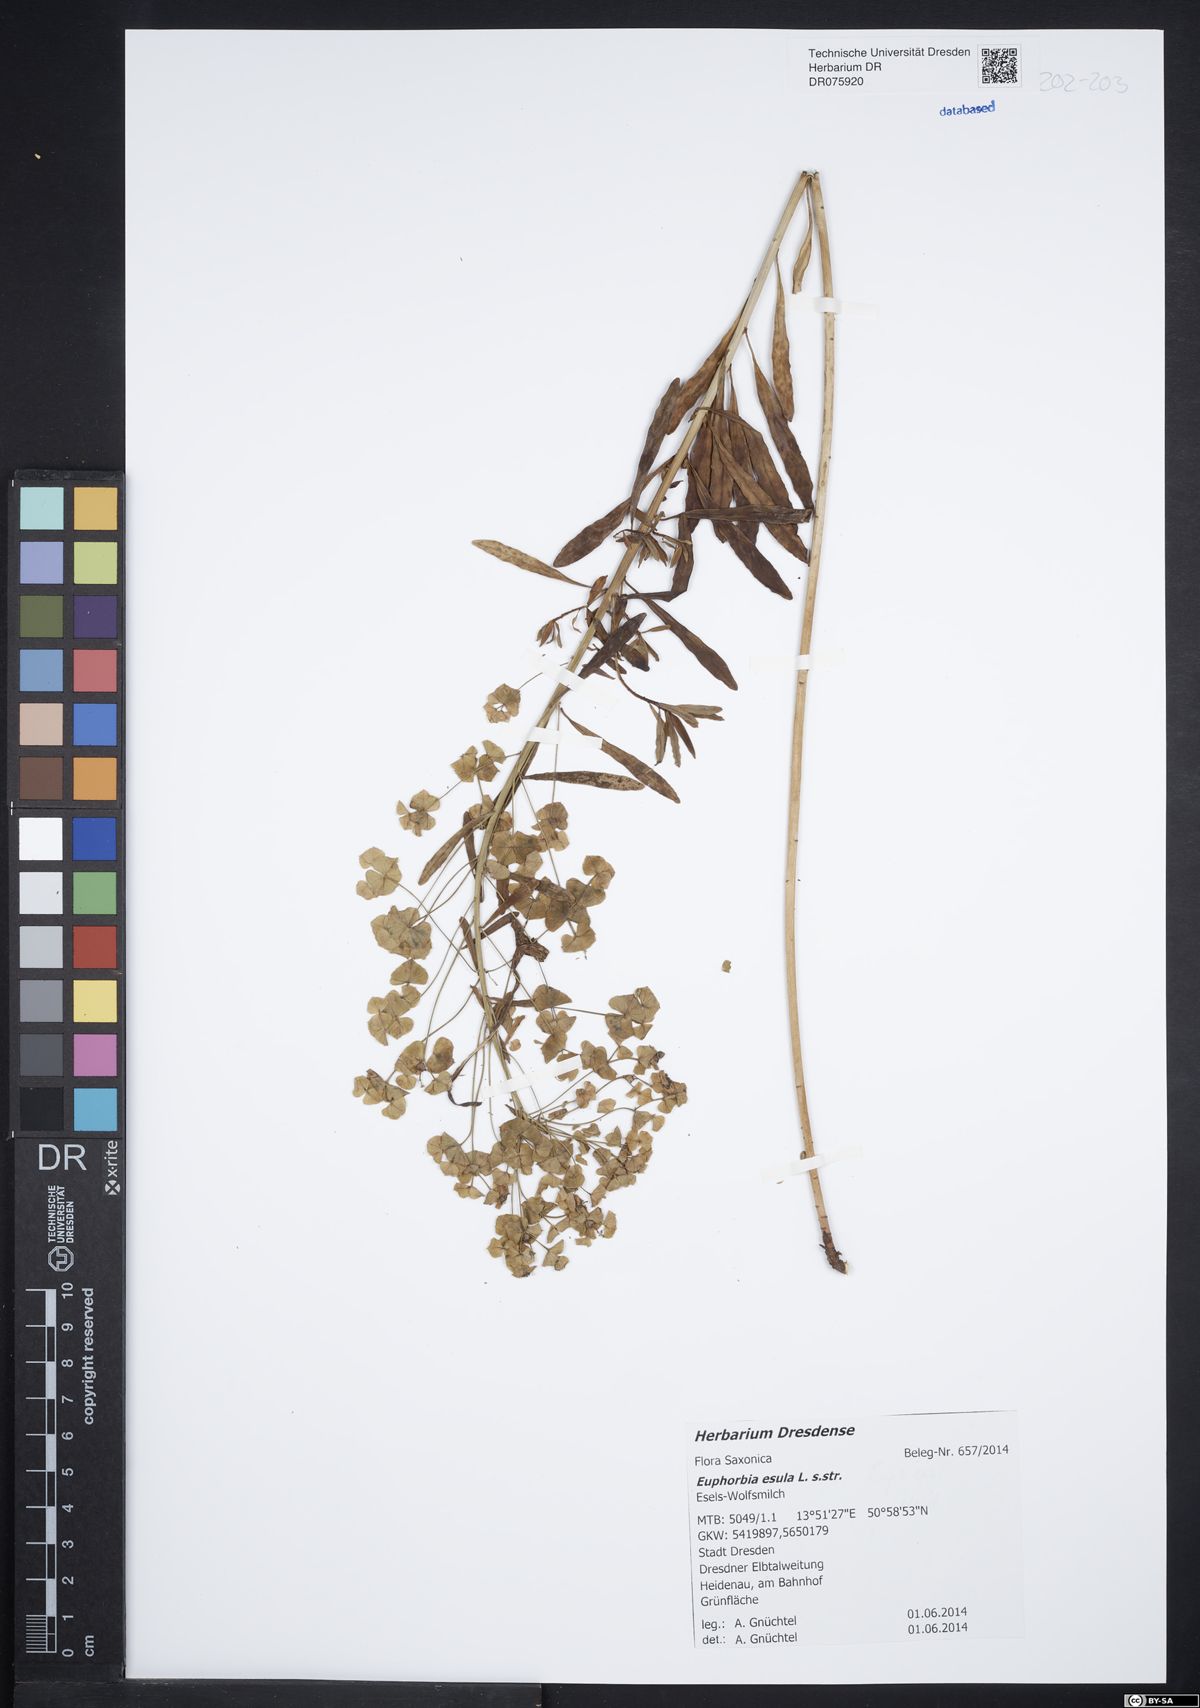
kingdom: Plantae
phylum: Tracheophyta
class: Magnoliopsida
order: Malpighiales
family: Euphorbiaceae
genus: Euphorbia
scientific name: Euphorbia esula
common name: Leafy spurge
